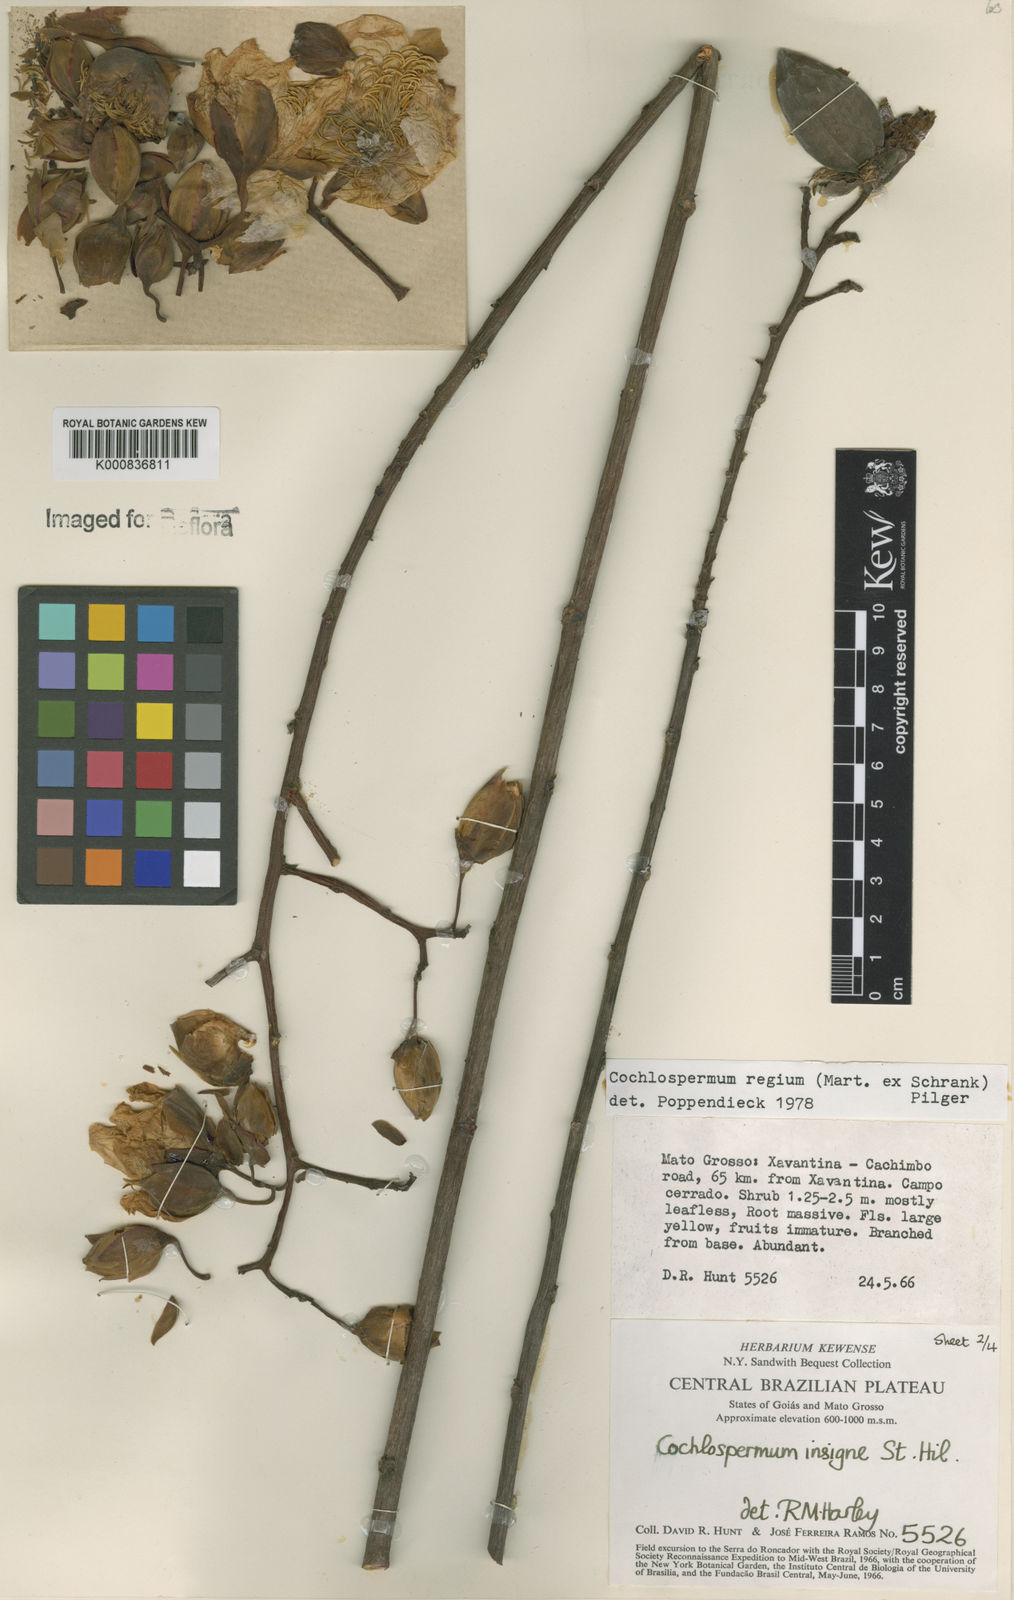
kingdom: Plantae
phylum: Tracheophyta
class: Magnoliopsida
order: Malvales
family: Cochlospermaceae
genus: Cochlospermum
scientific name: Cochlospermum regium
